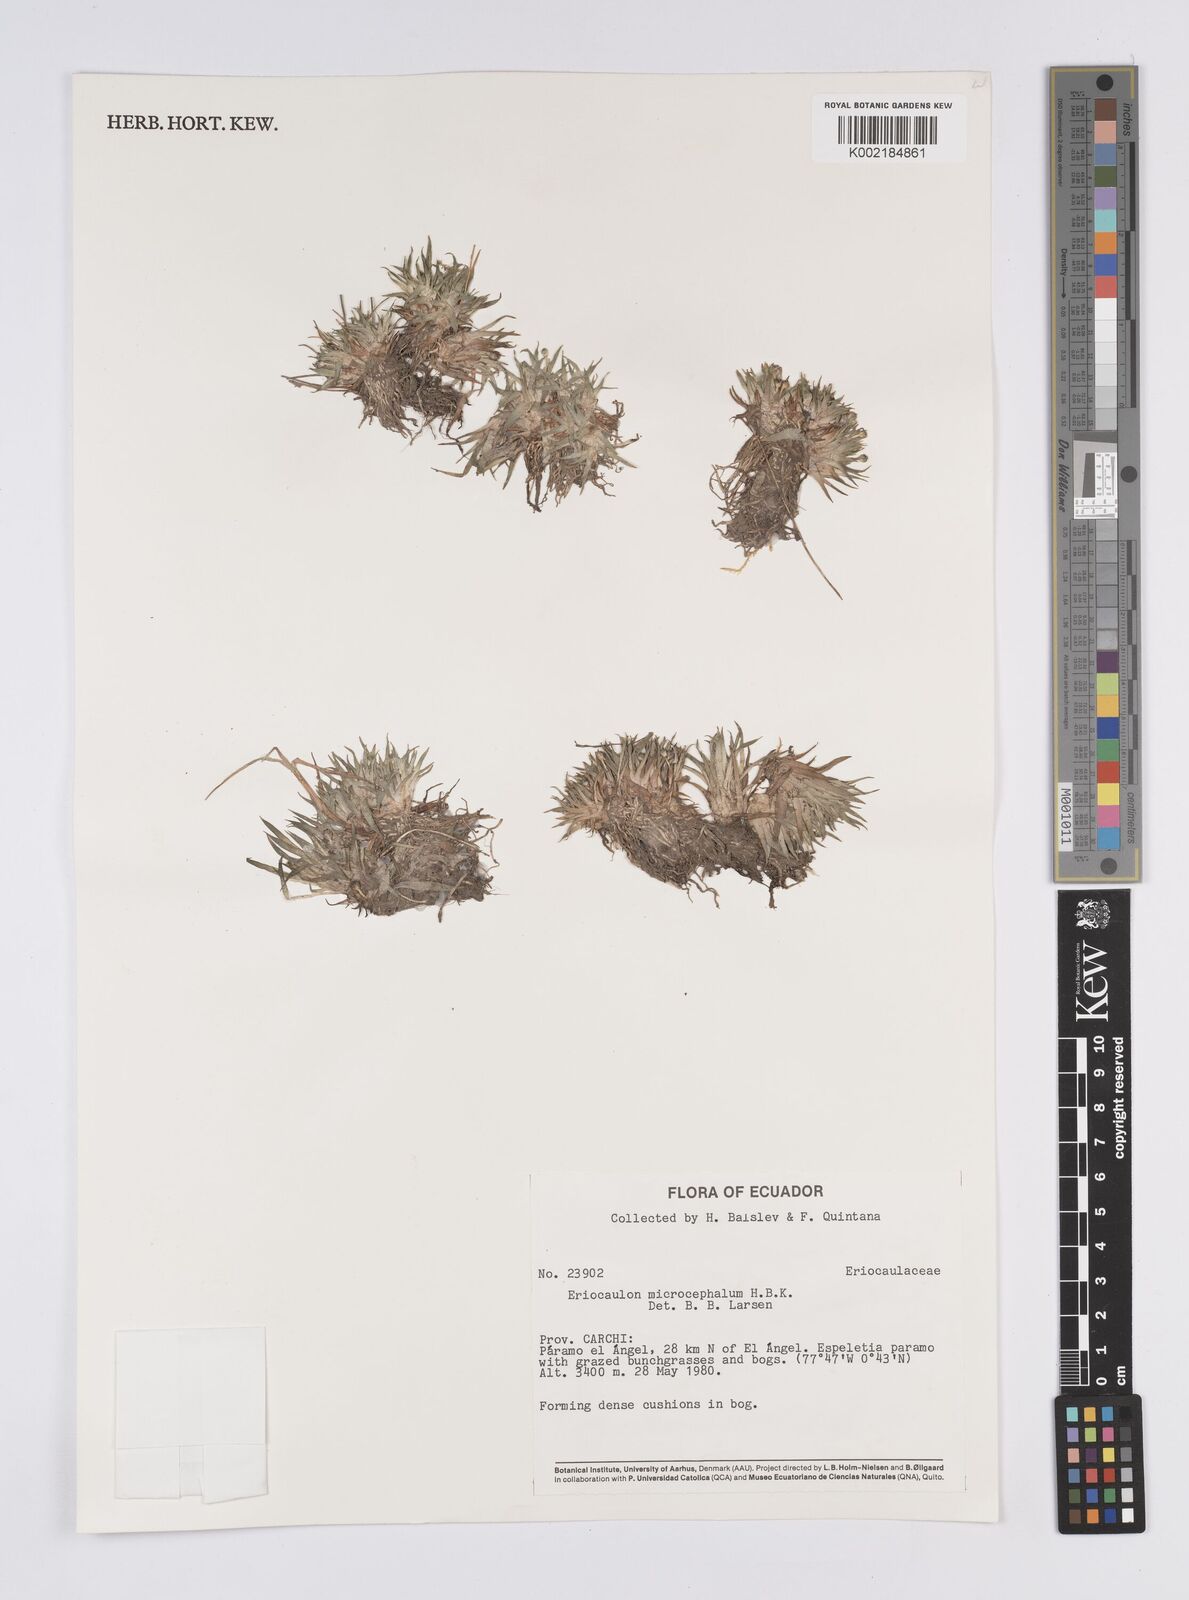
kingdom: Plantae
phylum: Tracheophyta
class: Liliopsida
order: Poales
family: Eriocaulaceae
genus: Eriocaulon
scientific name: Eriocaulon benthamii
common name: Bentham's pipewort
